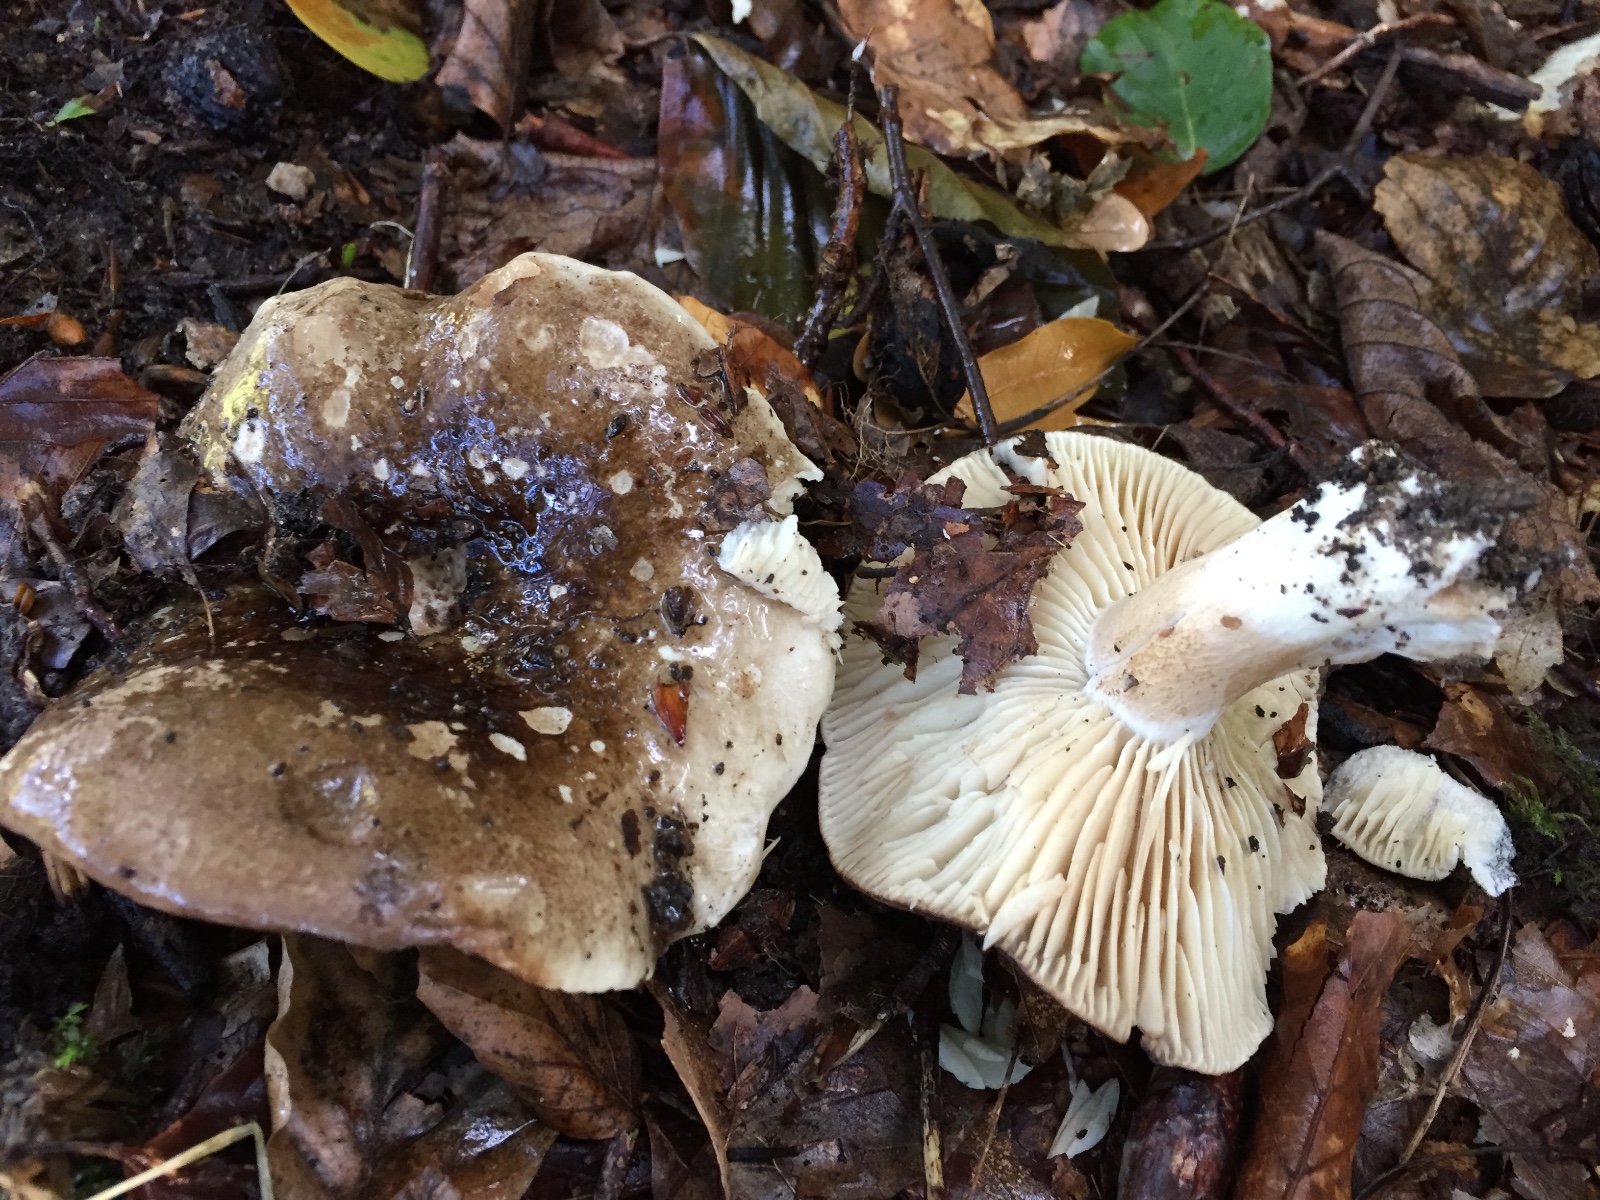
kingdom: Fungi
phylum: Basidiomycota
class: Agaricomycetes
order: Russulales
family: Russulaceae
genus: Russula
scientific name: Russula adusta
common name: sværtende skørhat
